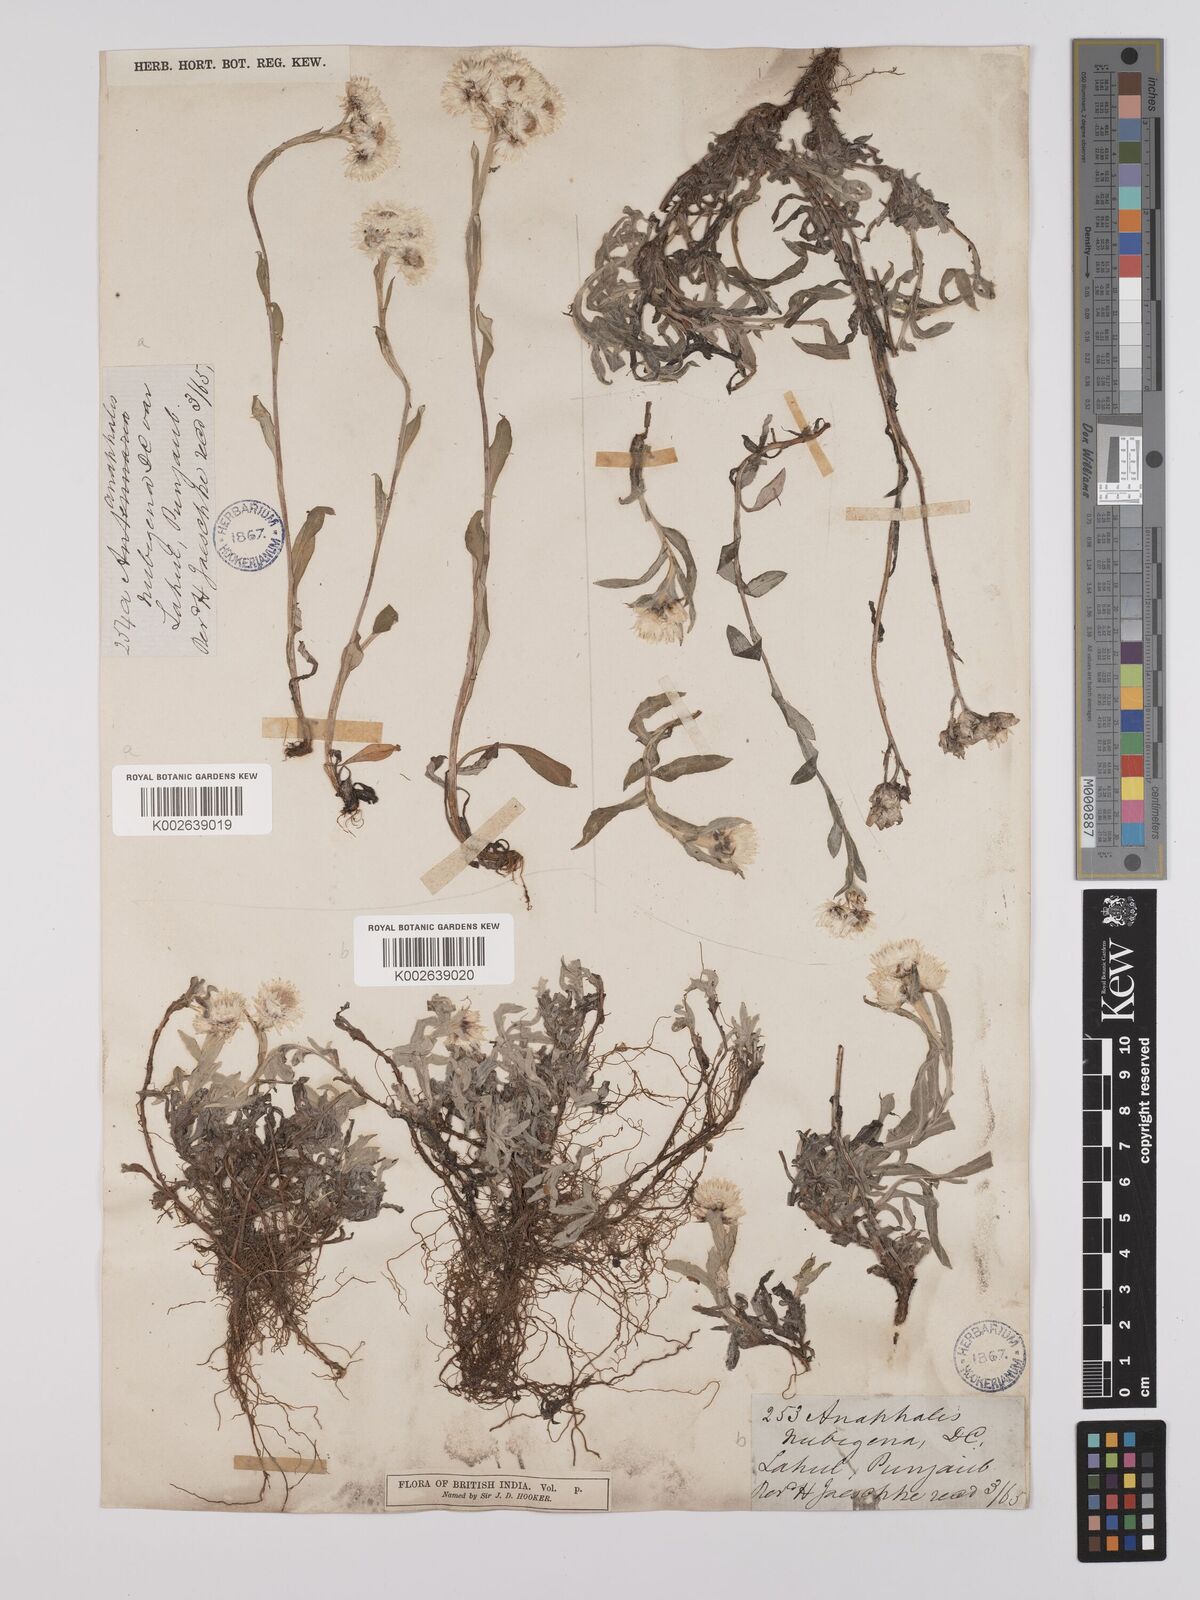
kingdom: Plantae
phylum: Tracheophyta
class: Magnoliopsida
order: Asterales
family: Asteraceae
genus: Anaphalioides
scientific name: Anaphalioides trinervis
